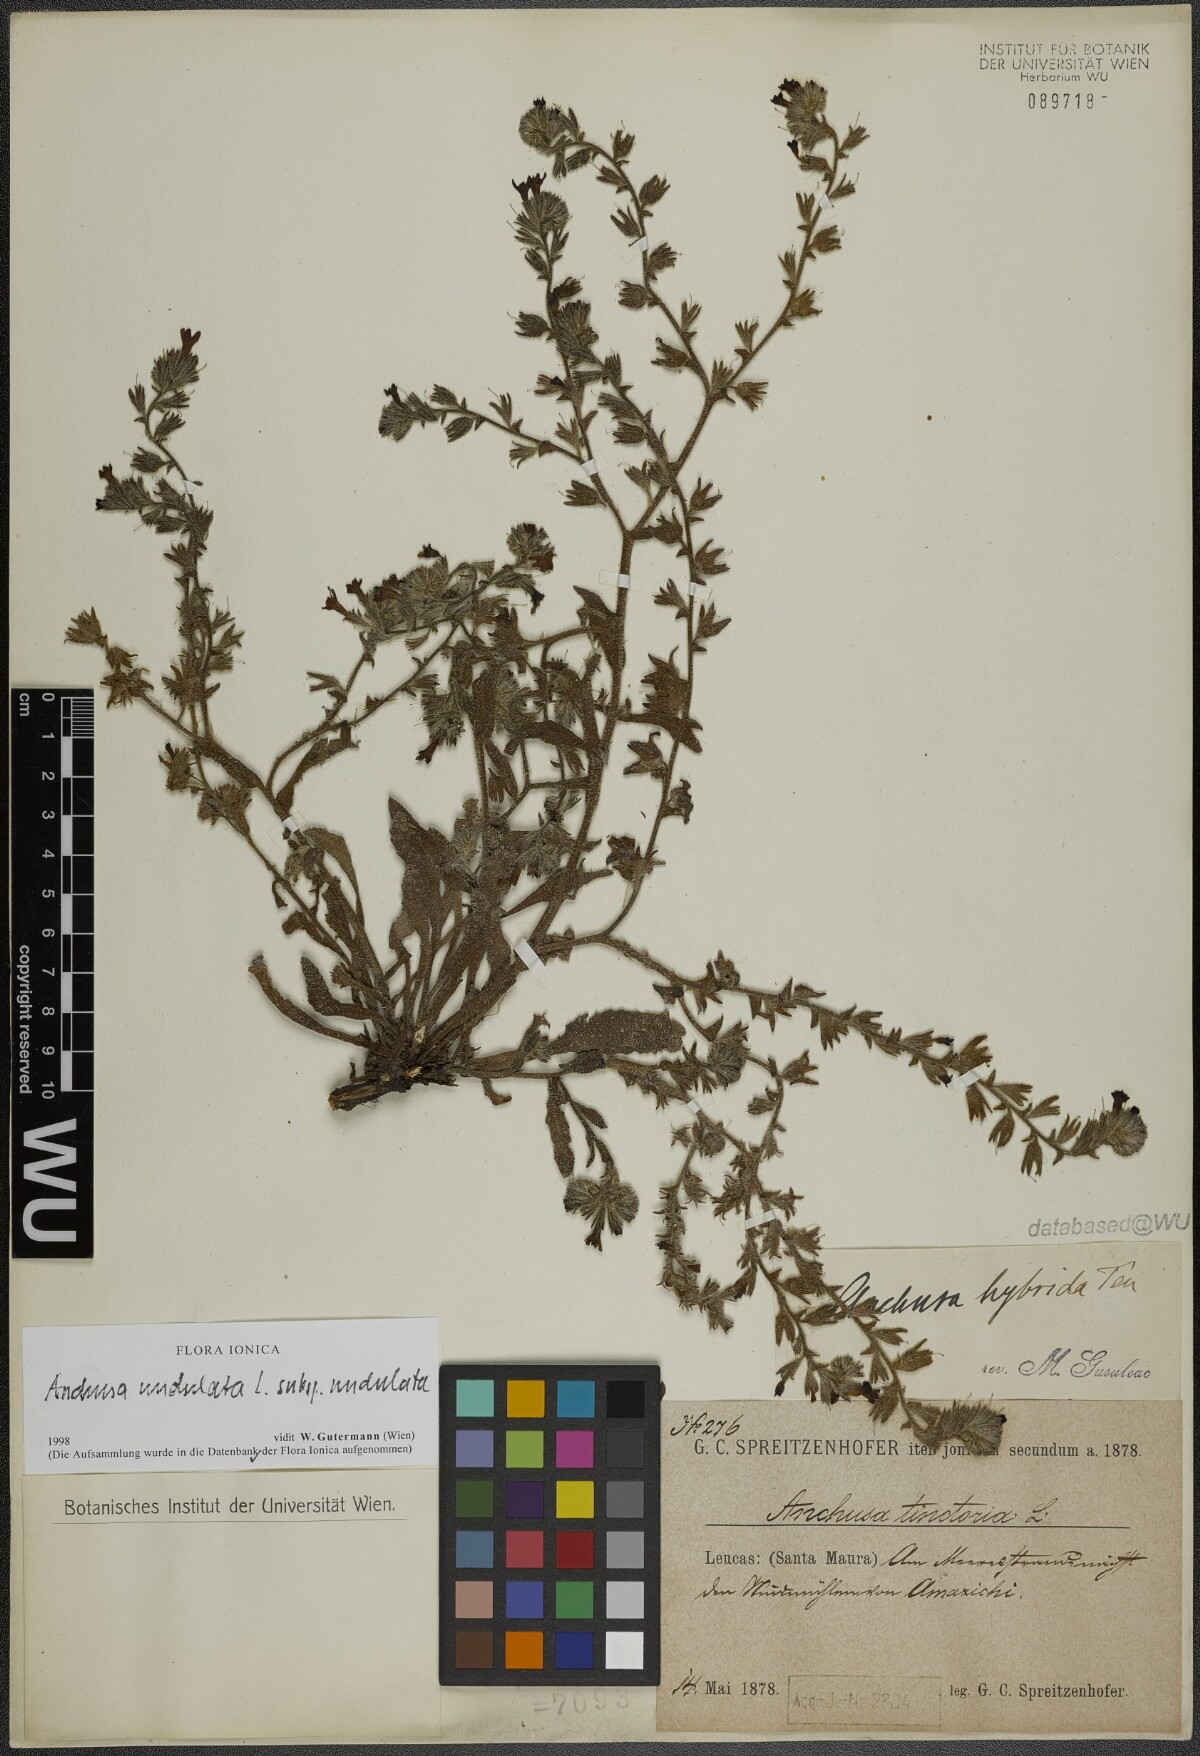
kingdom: Plantae
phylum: Tracheophyta
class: Magnoliopsida
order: Boraginales
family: Boraginaceae
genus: Anchusa
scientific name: Anchusa undulata
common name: Undulate alkanet
